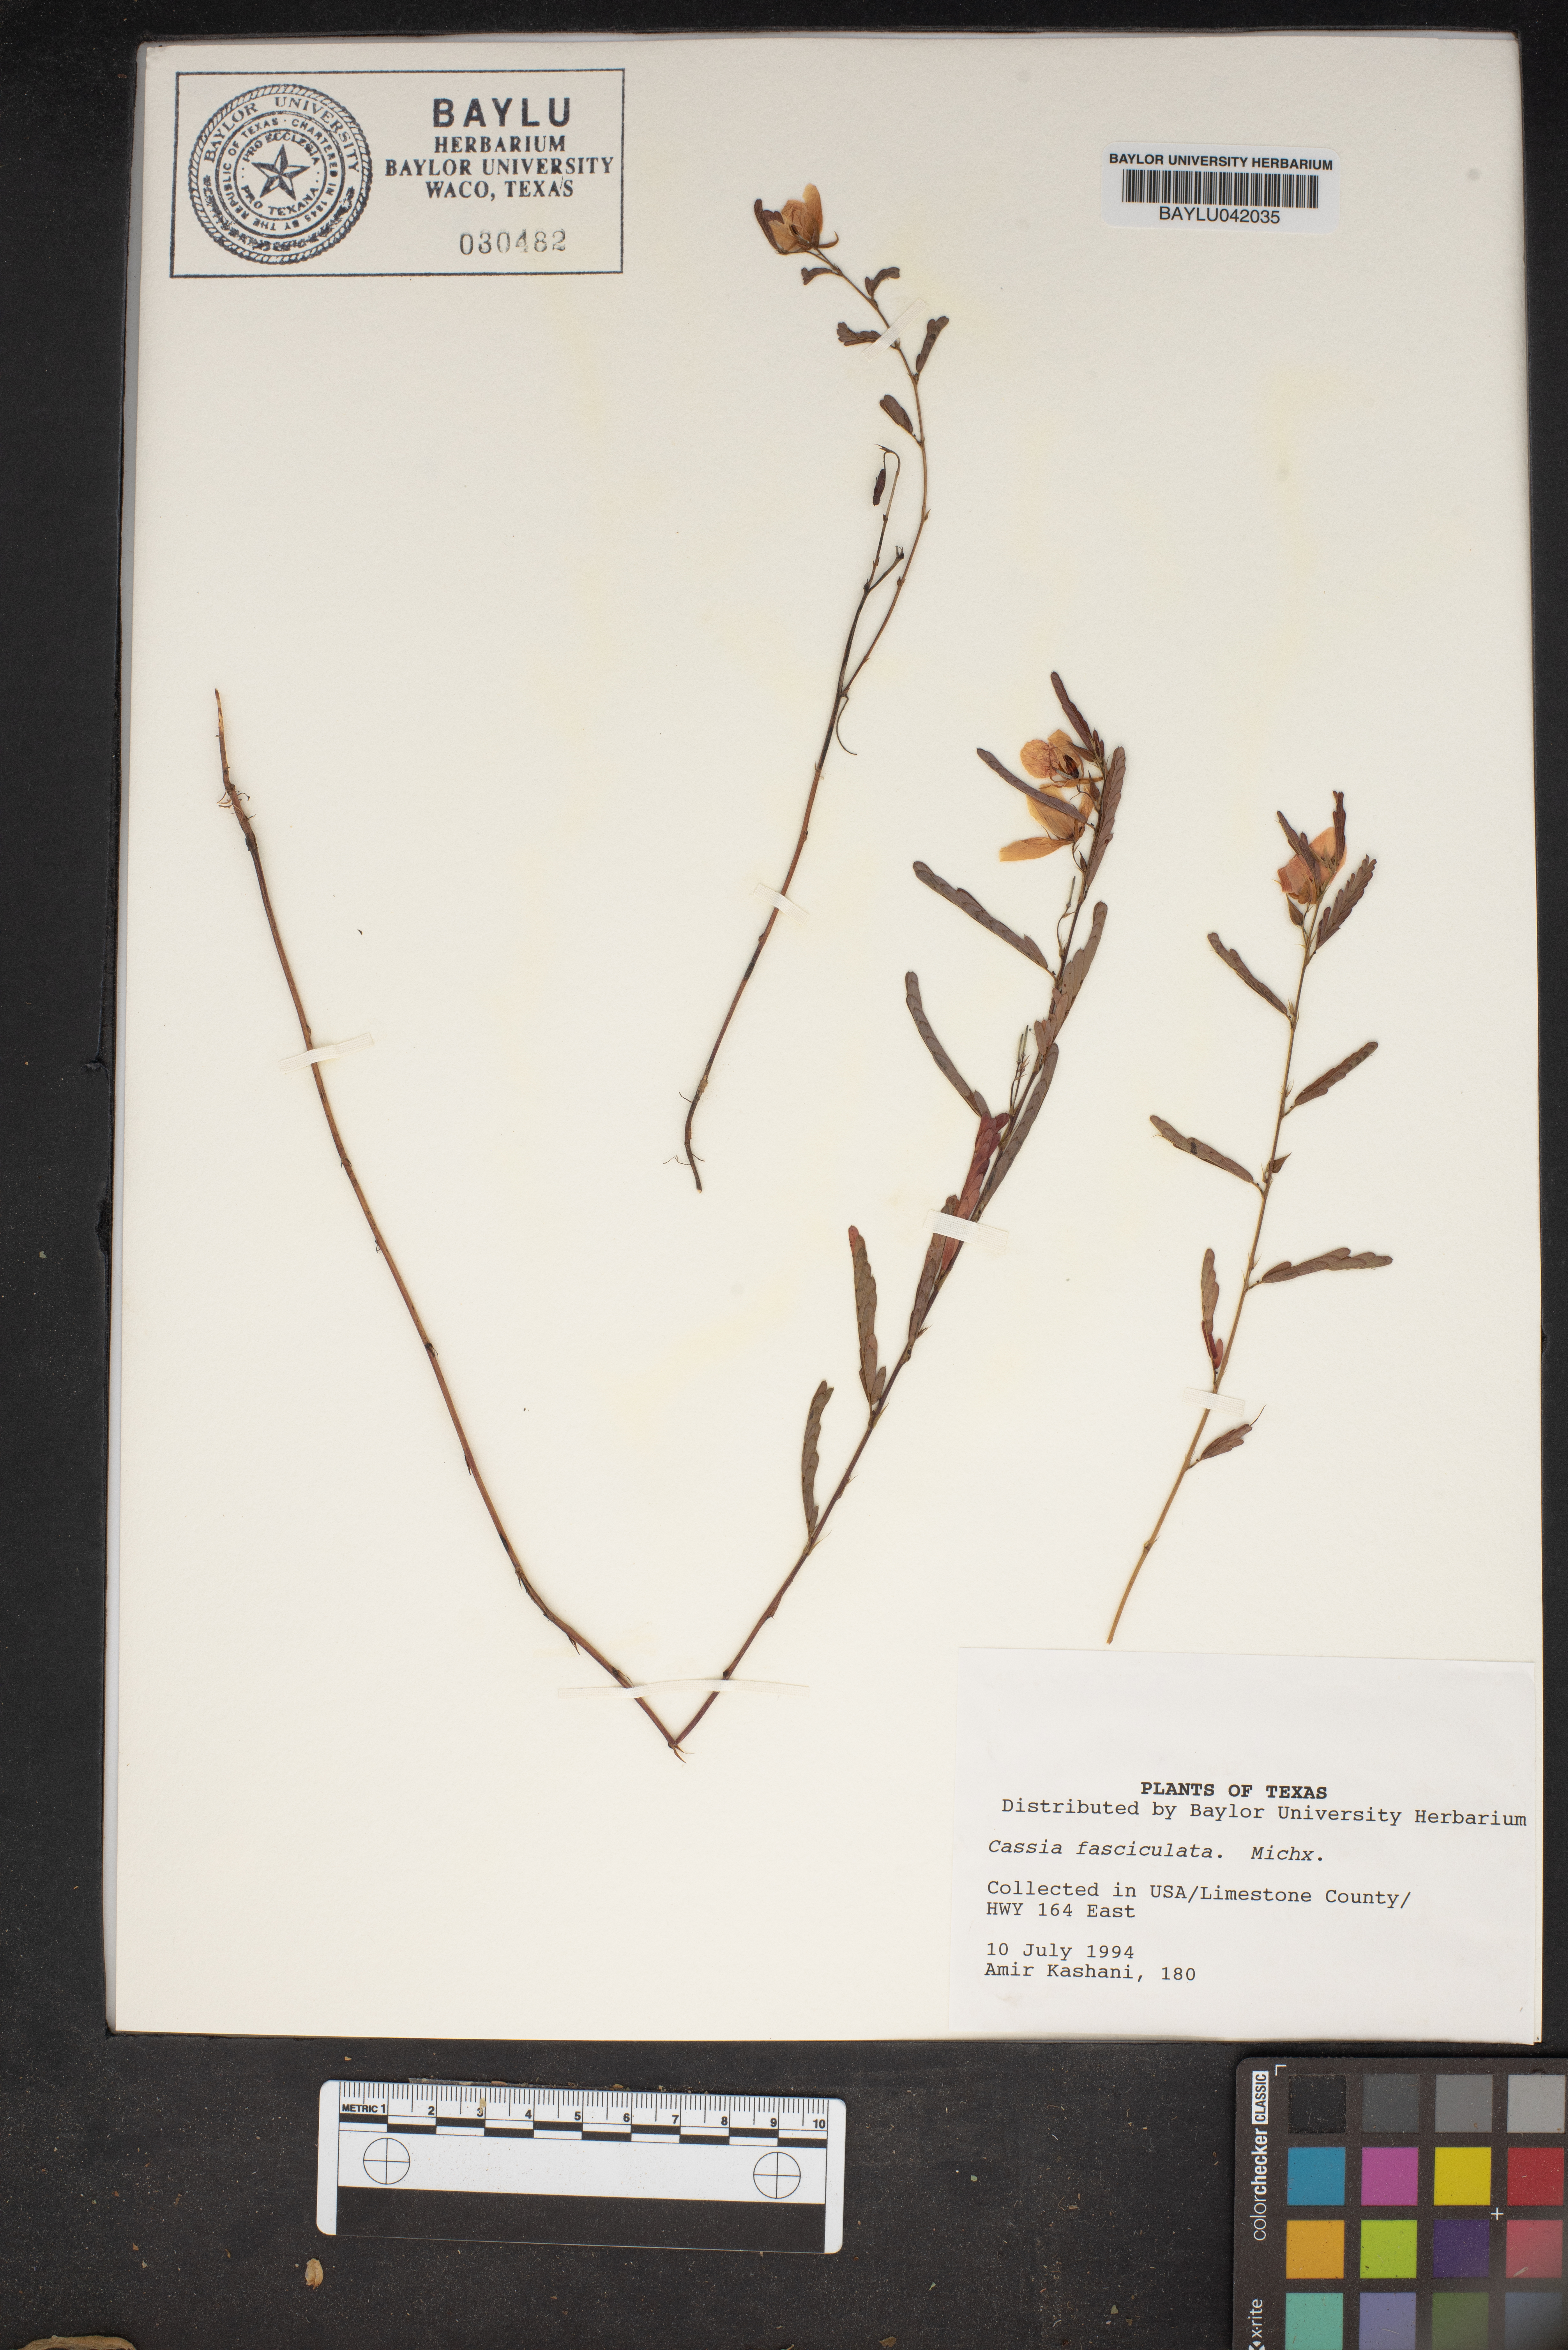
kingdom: Plantae
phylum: Tracheophyta
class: Magnoliopsida
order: Fabales
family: Fabaceae
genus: Chamaecrista
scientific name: Chamaecrista fasciculata
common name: Golden cassia
